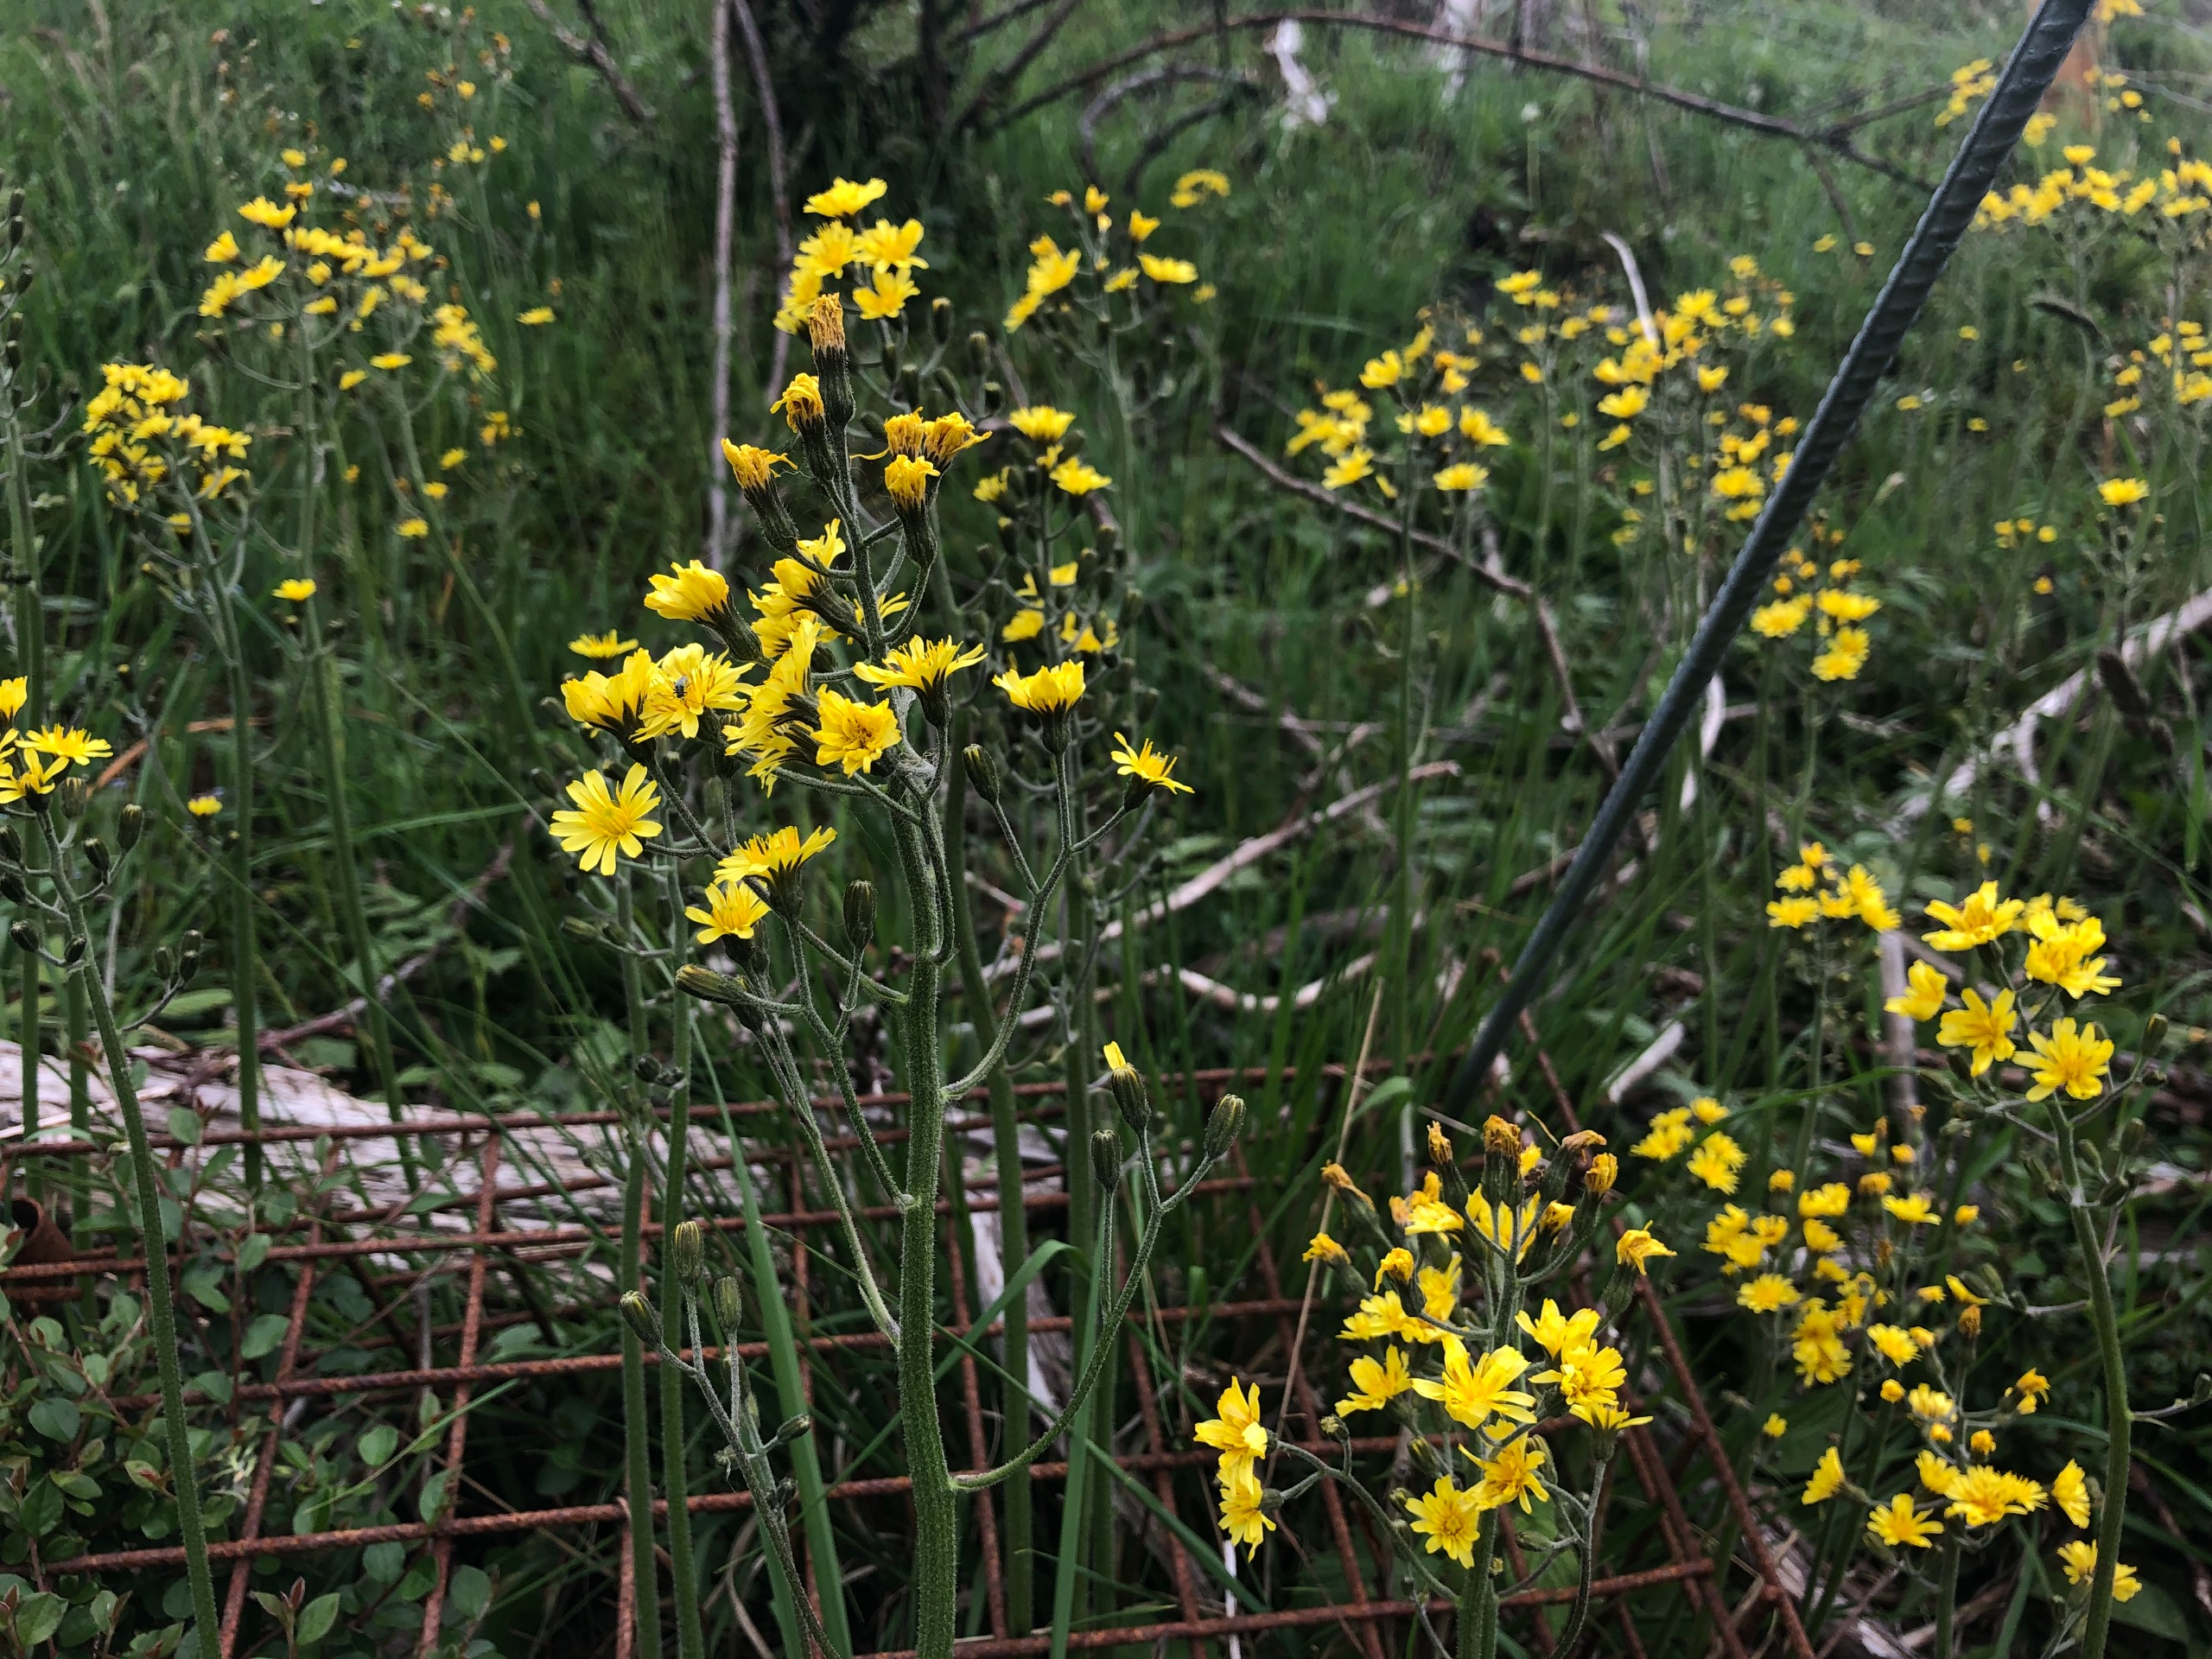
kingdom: Plantae
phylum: Tracheophyta
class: Magnoliopsida
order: Asterales
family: Asteraceae
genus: Crepis
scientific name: Crepis praemorsa
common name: Afbidt høgeskæg
